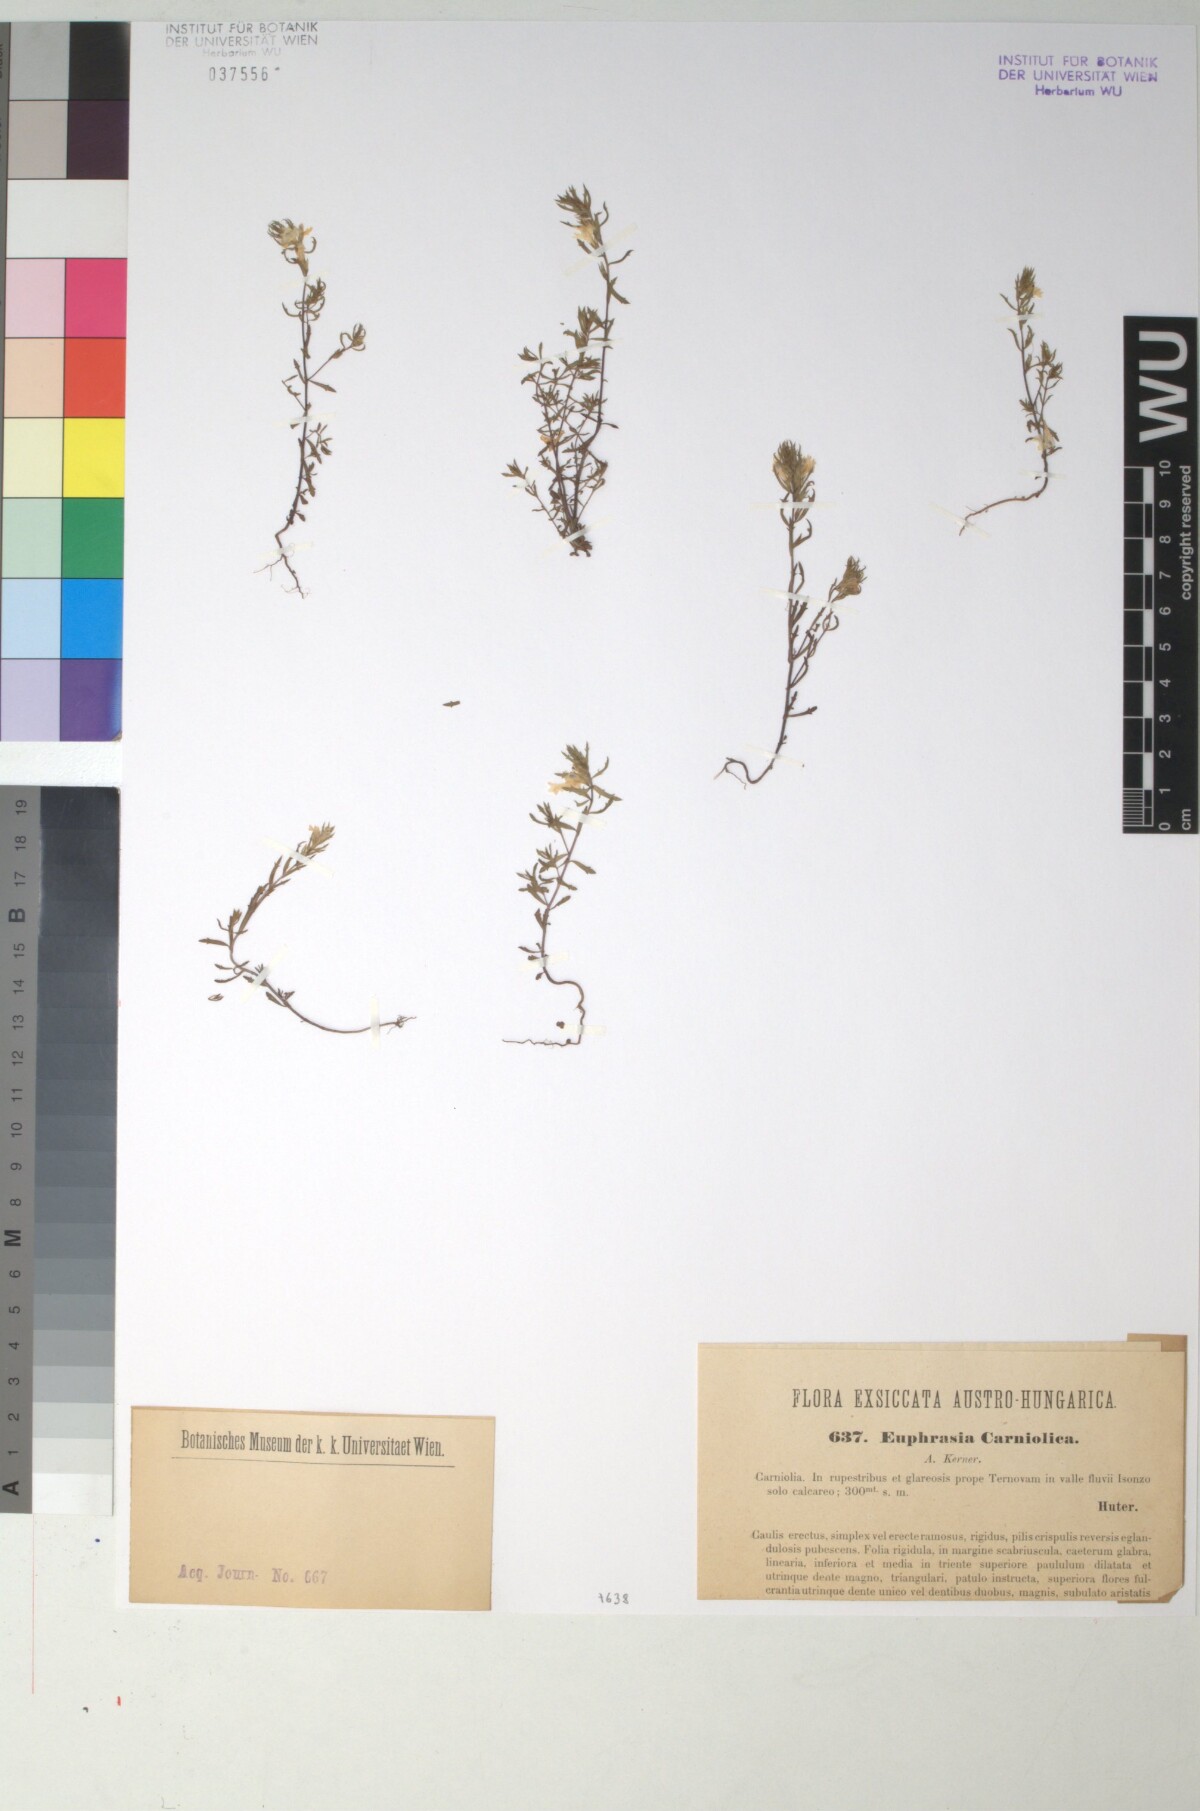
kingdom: Plantae
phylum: Tracheophyta
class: Magnoliopsida
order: Lamiales
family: Orobanchaceae
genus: Euphrasia
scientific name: Euphrasia officinalis
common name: Eyebright
